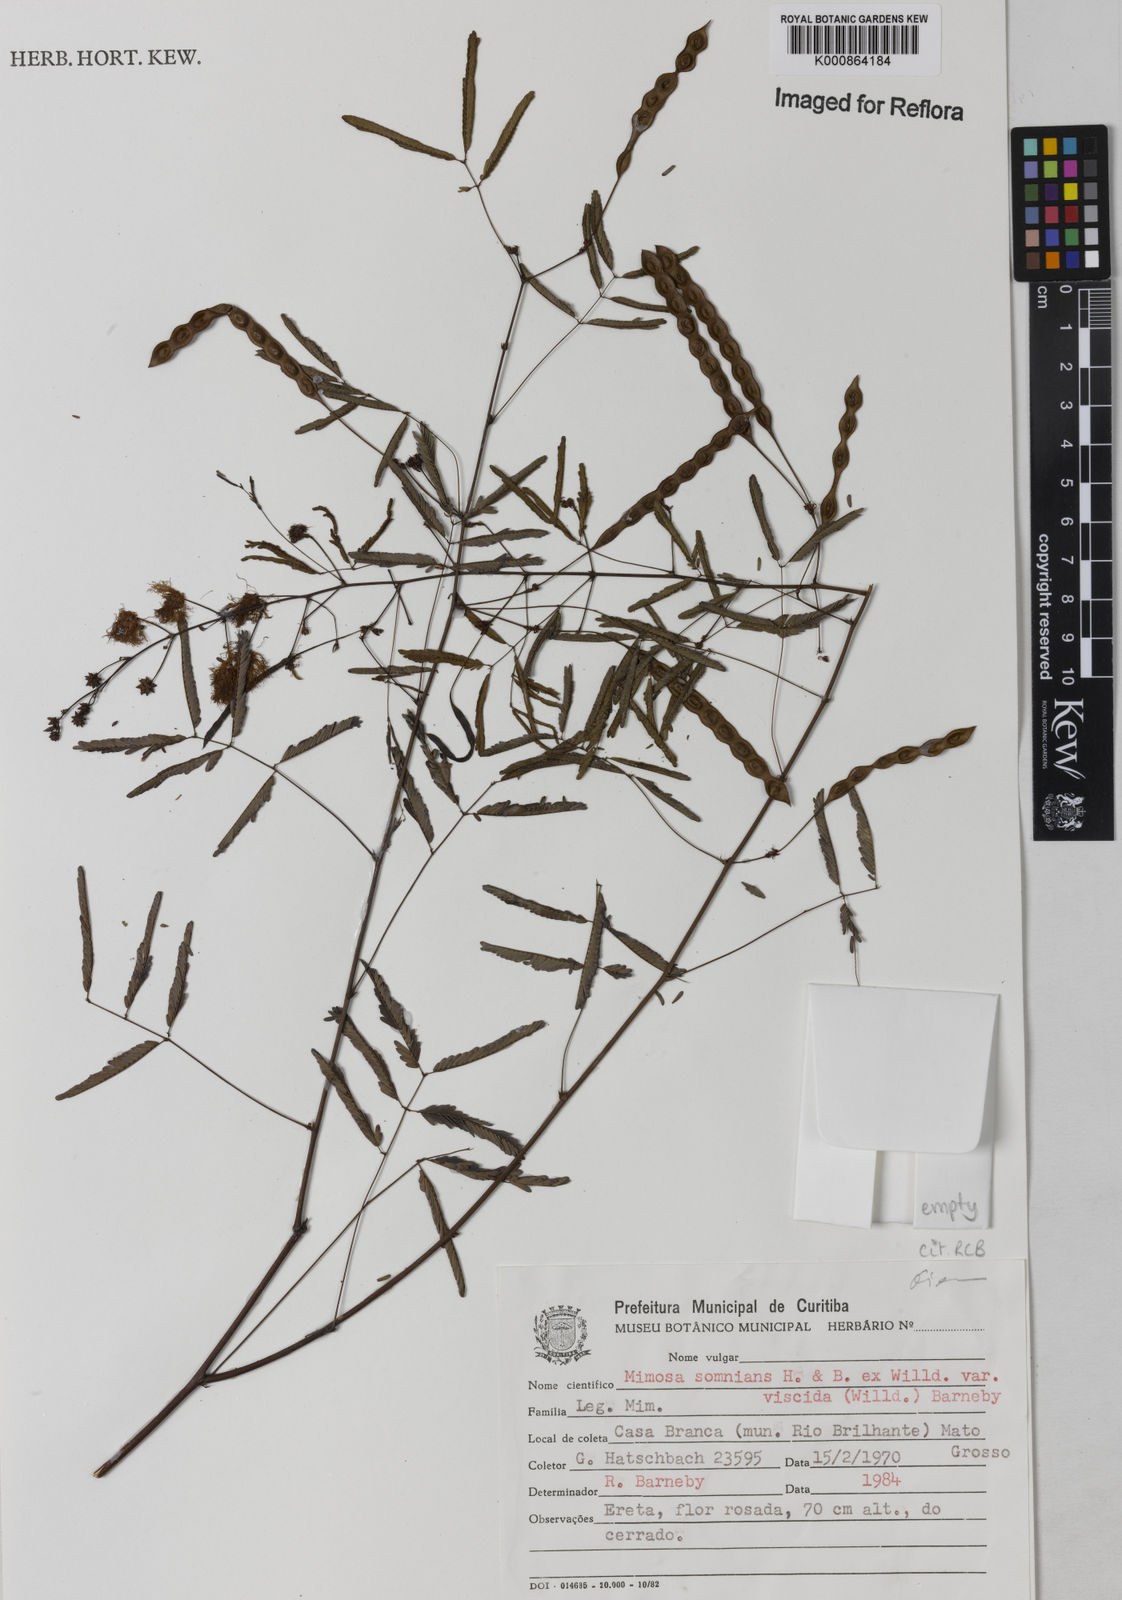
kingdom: Plantae
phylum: Tracheophyta
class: Magnoliopsida
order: Fabales
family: Fabaceae
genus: Mimosa
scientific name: Mimosa somnians
